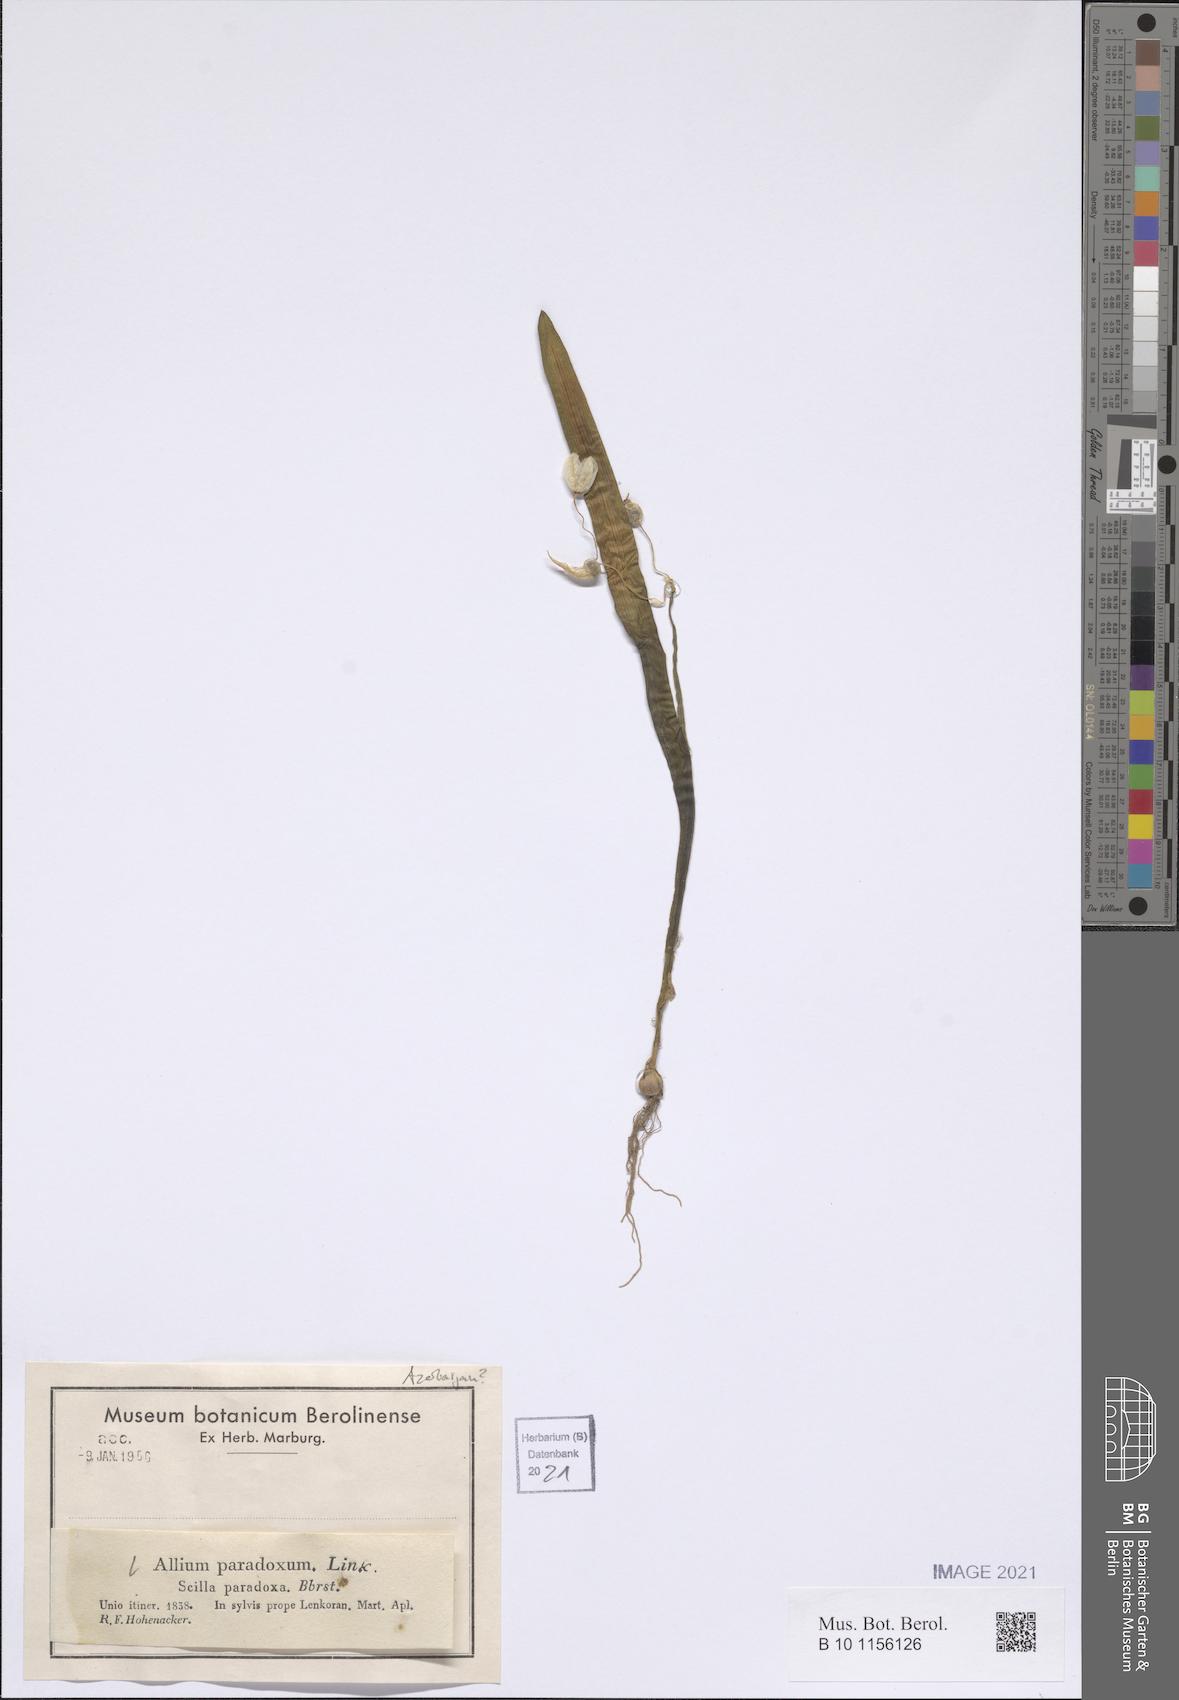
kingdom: Plantae
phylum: Tracheophyta
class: Liliopsida
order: Asparagales
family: Amaryllidaceae
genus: Allium
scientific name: Allium paradoxum
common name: Few-flowered garlic
